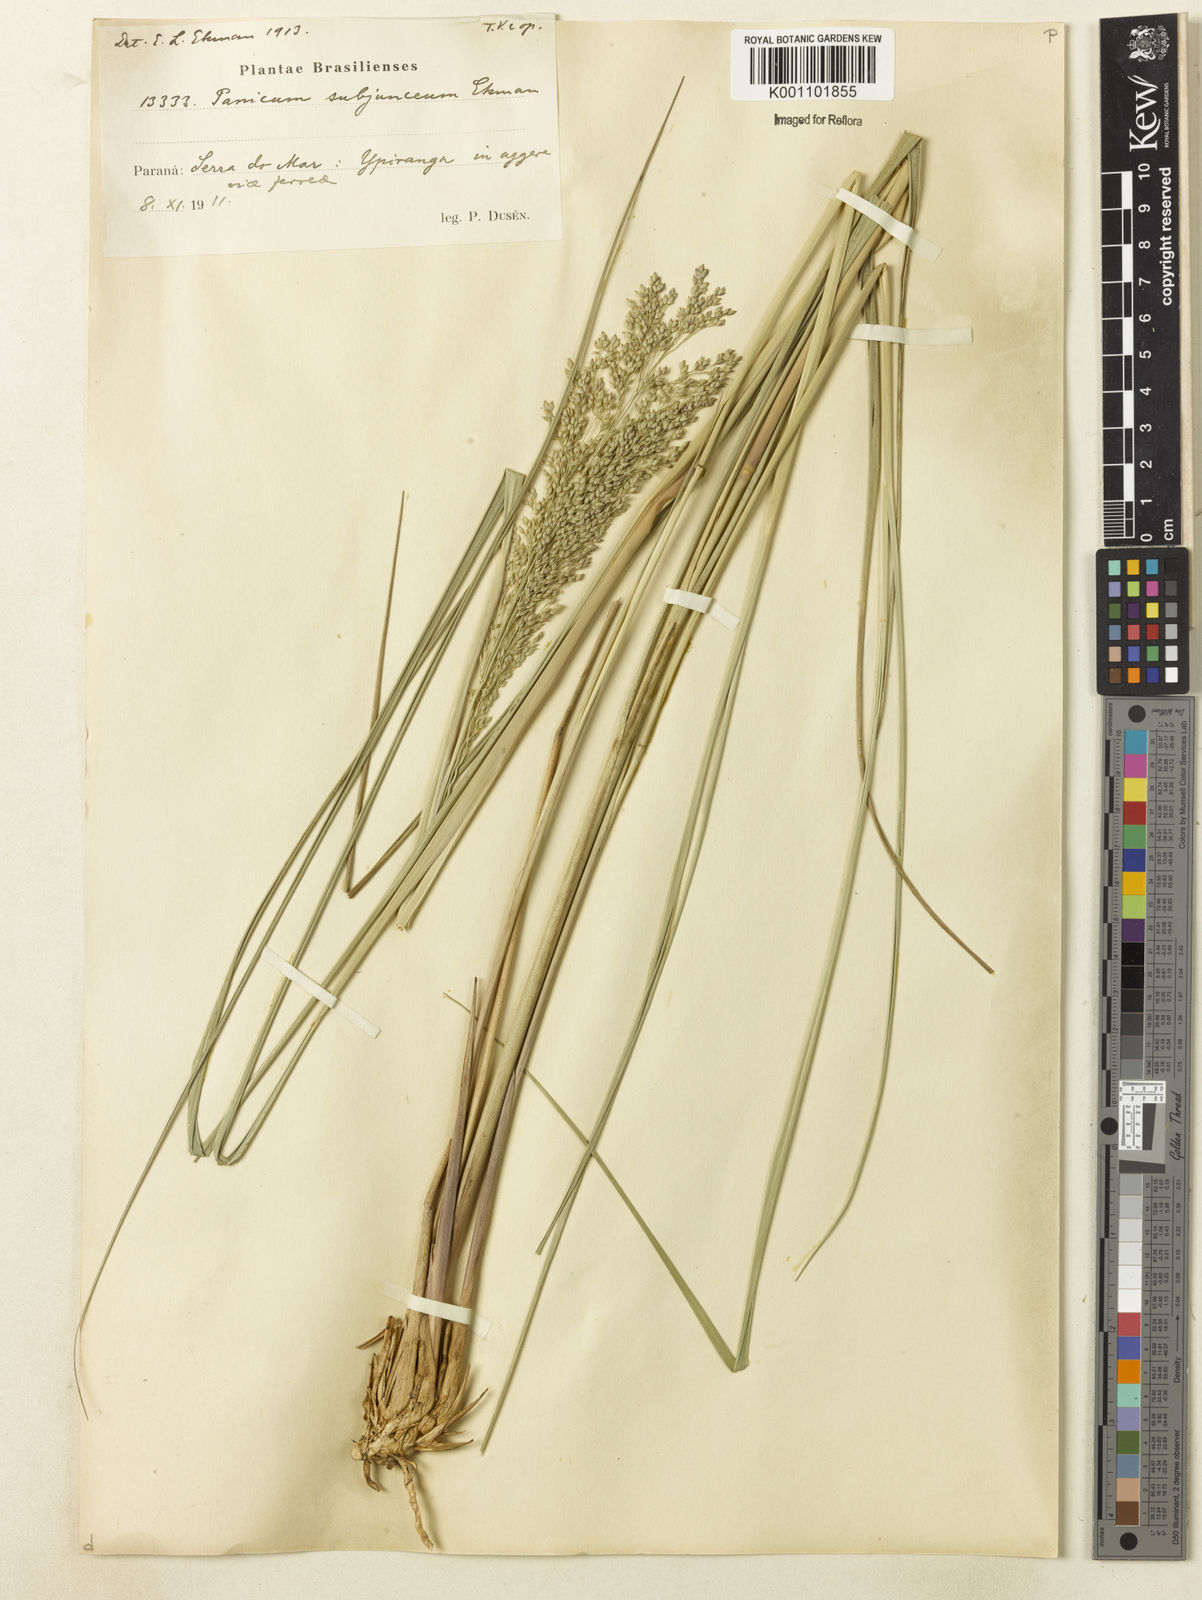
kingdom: Plantae
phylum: Tracheophyta
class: Liliopsida
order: Poales
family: Poaceae
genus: Panicum
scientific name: Panicum glabripes
